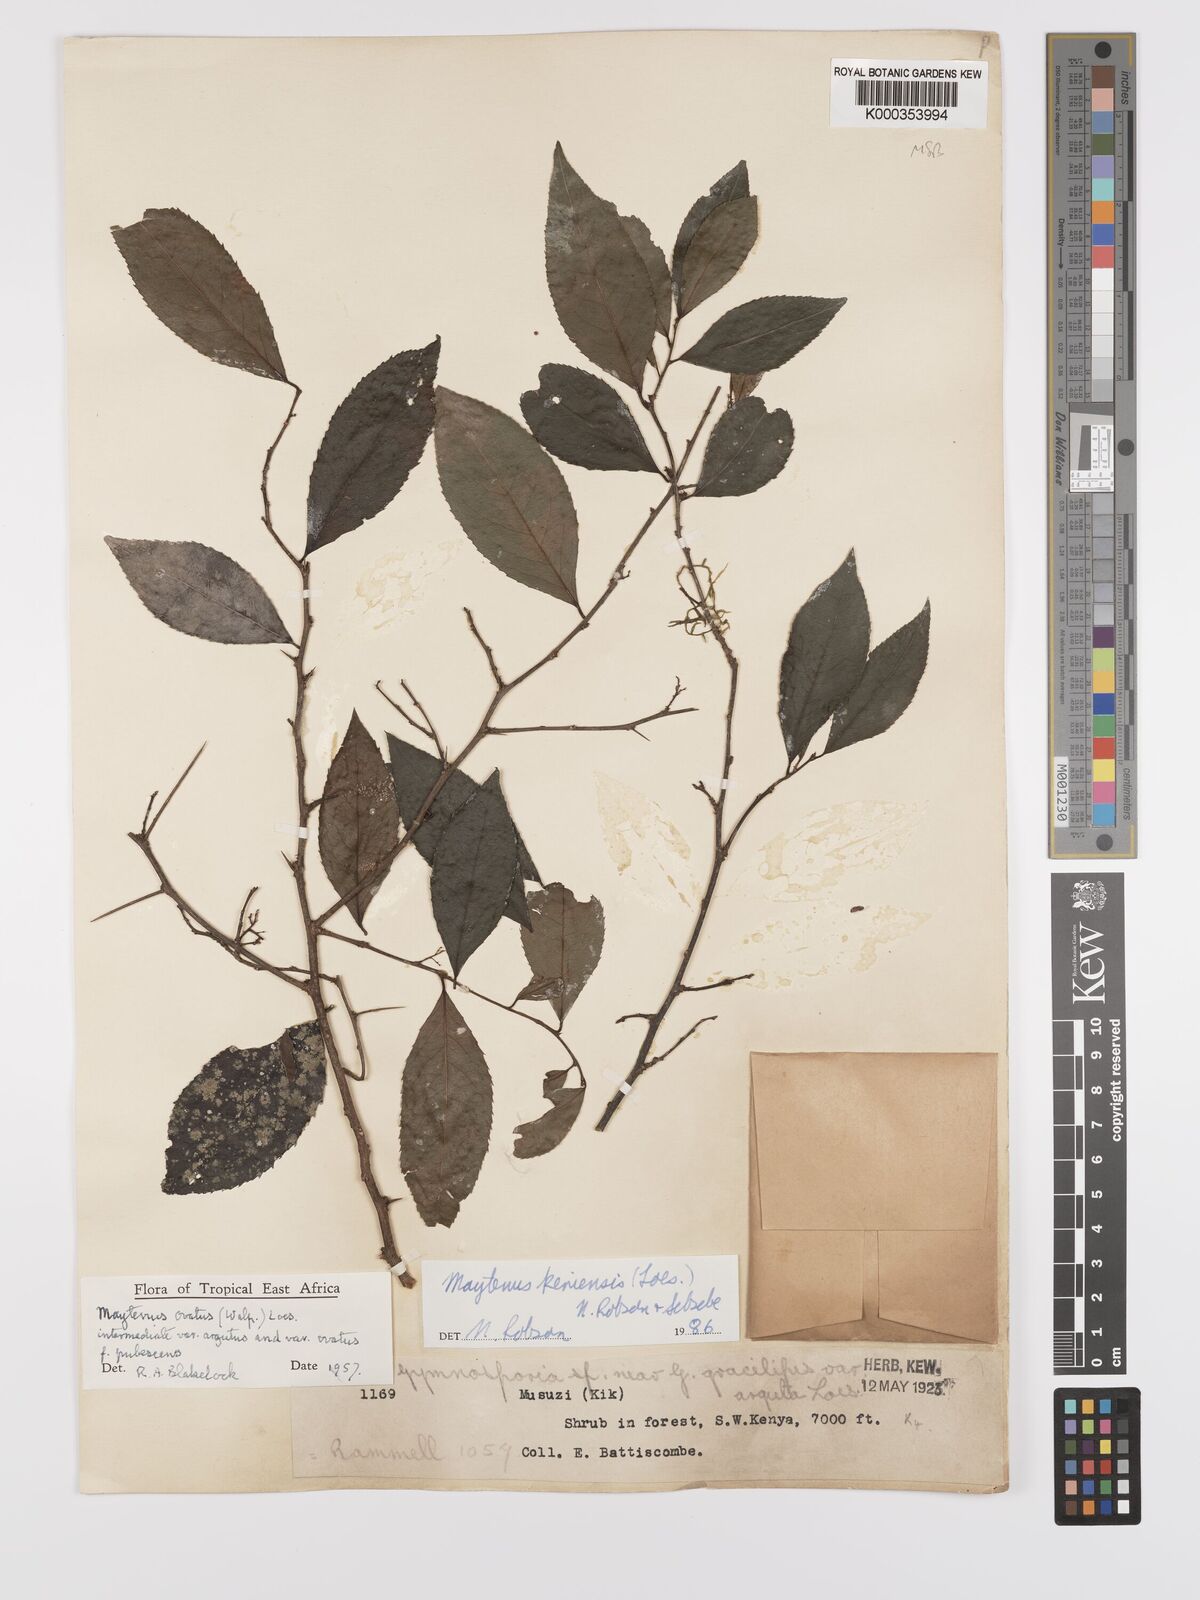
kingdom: Plantae
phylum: Tracheophyta
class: Magnoliopsida
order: Celastrales
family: Celastraceae
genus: Gymnosporia
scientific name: Gymnosporia keniensis
